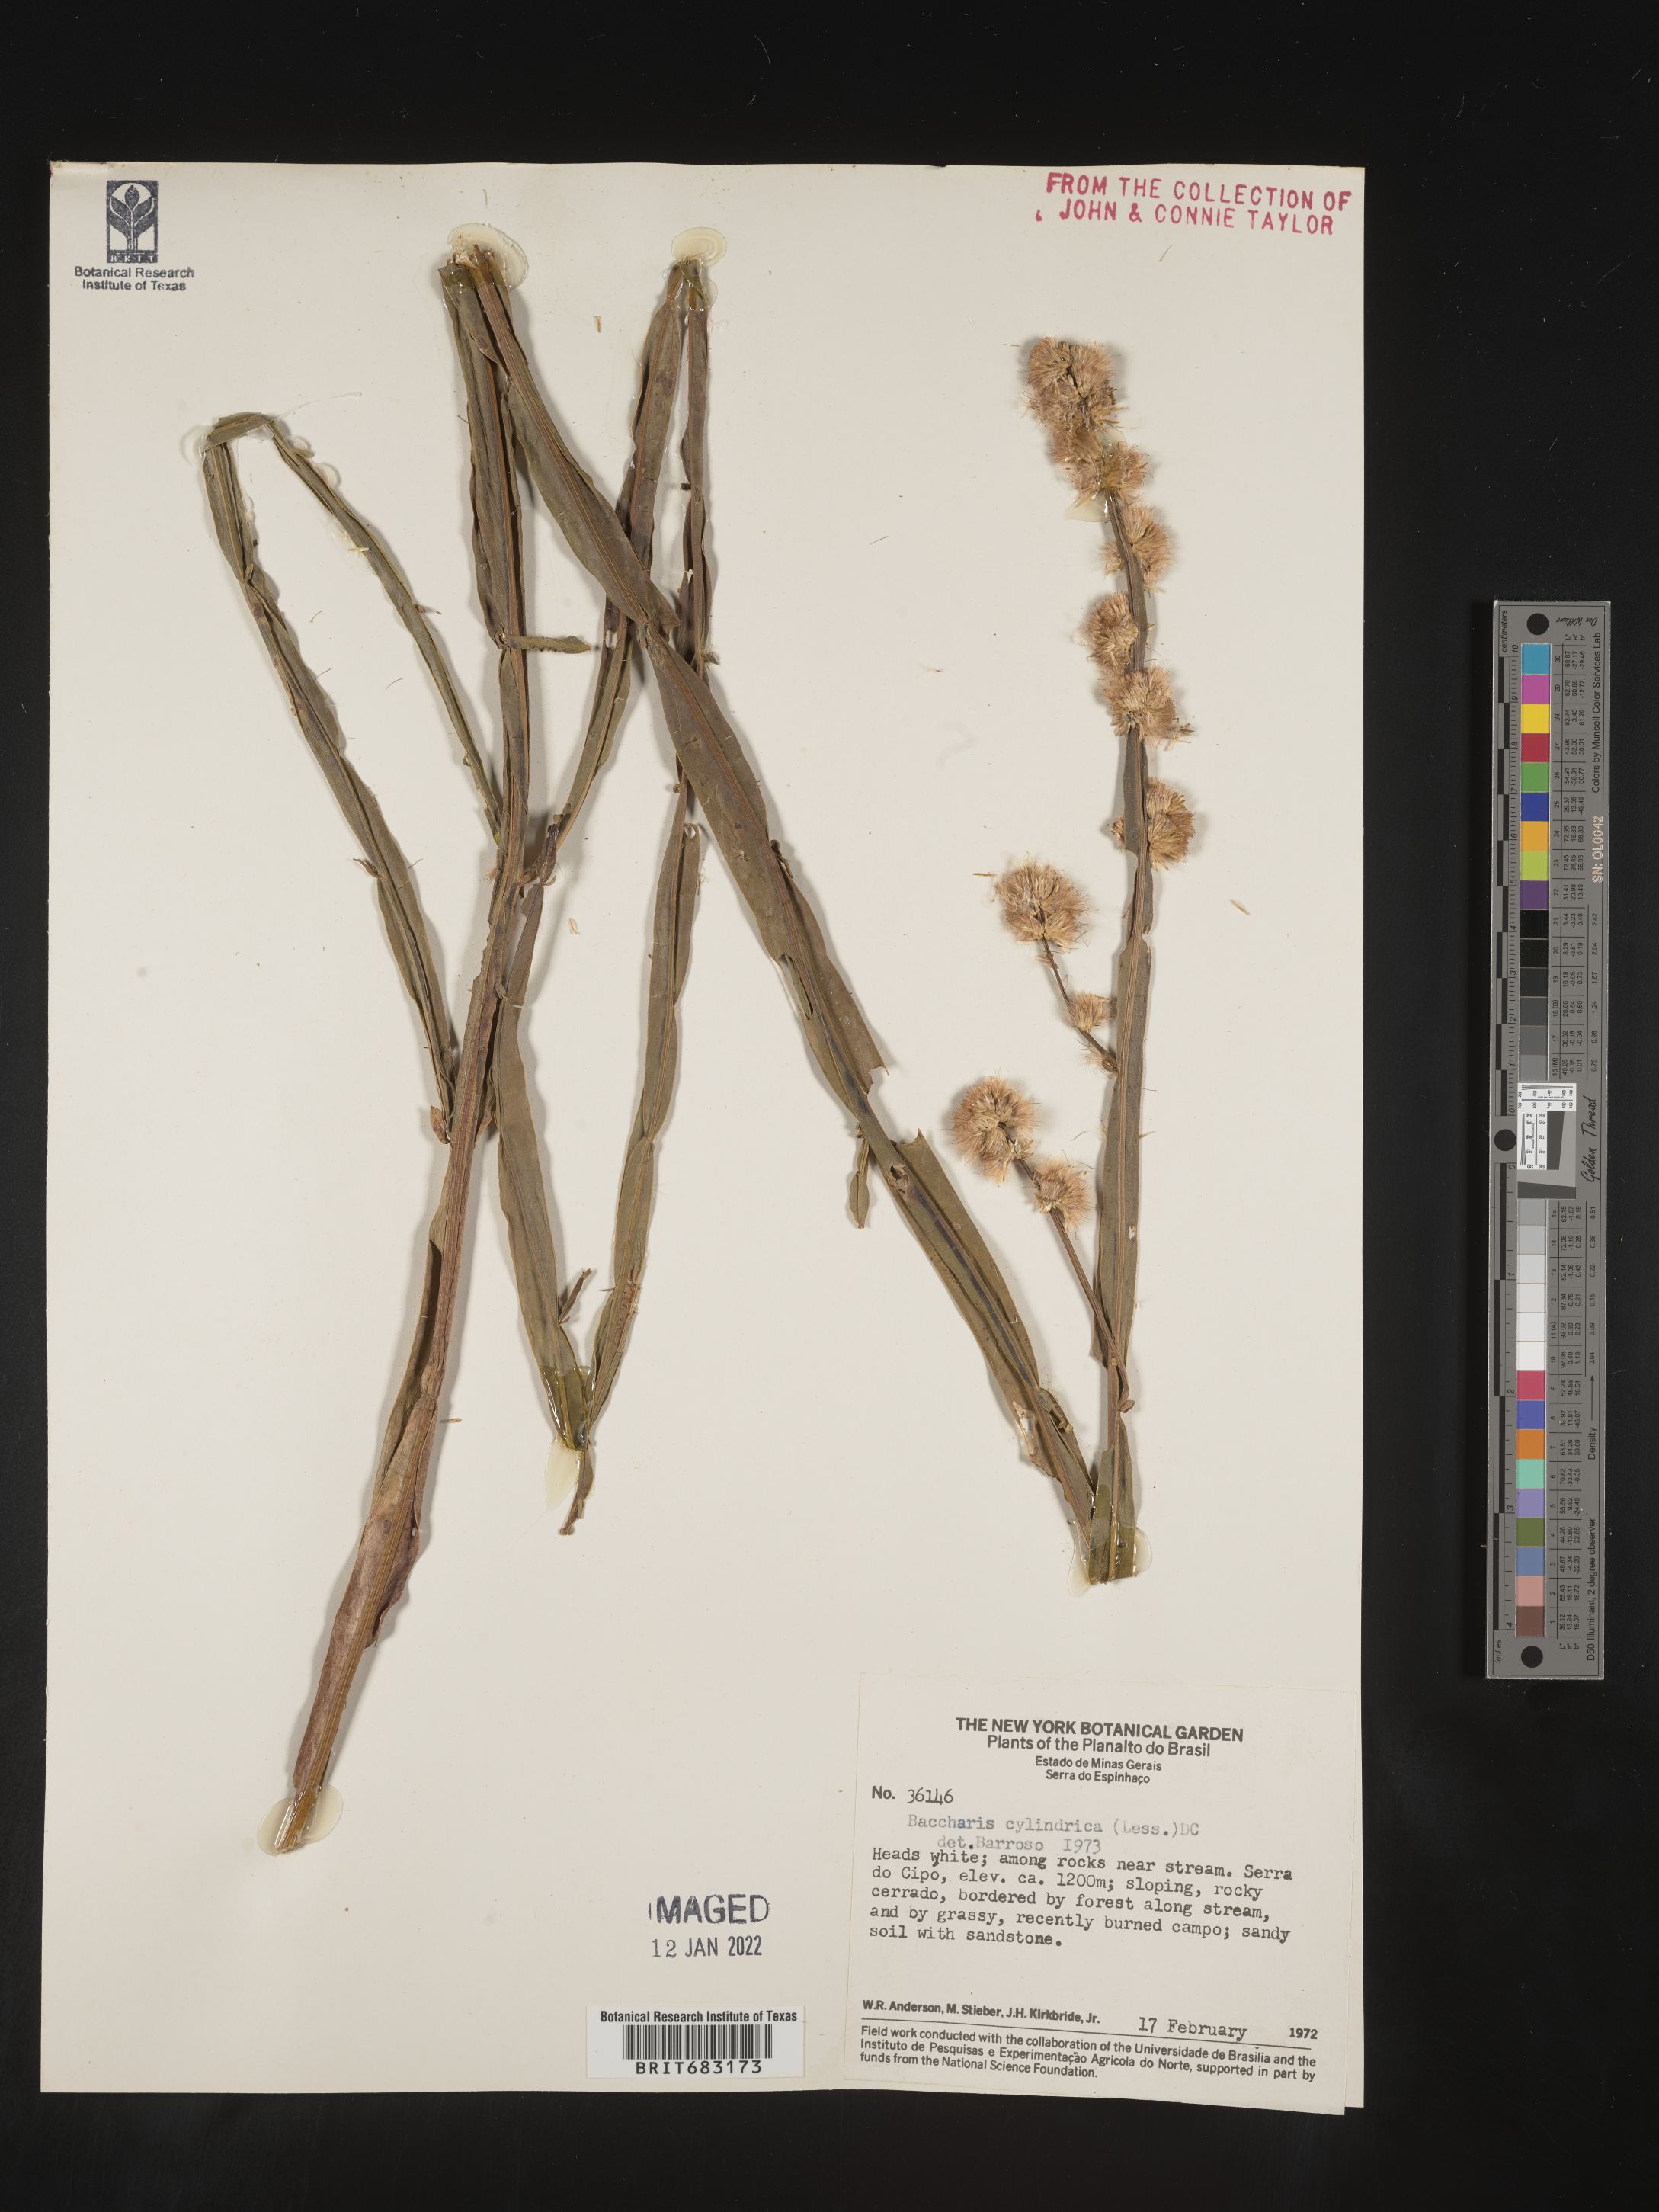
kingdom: Plantae
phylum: Tracheophyta
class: Magnoliopsida
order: Asterales
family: Asteraceae
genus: Baccharis
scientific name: Baccharis
